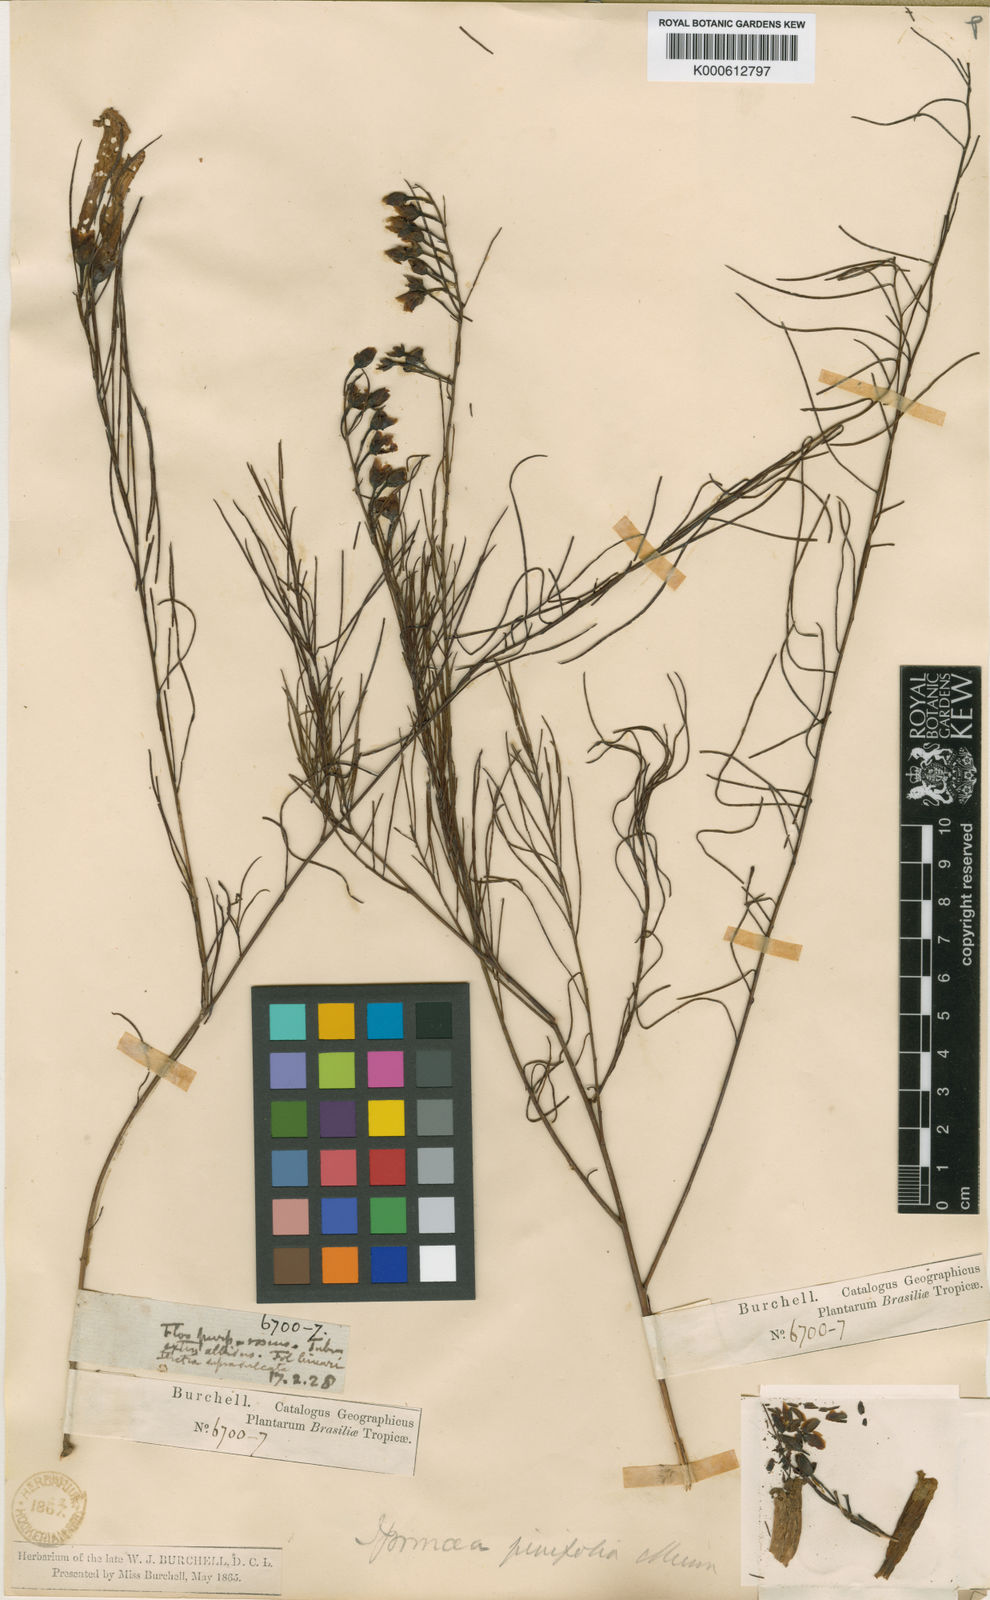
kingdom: Plantae
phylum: Tracheophyta
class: Magnoliopsida
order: Solanales
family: Convolvulaceae
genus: Ipomoea
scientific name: Ipomoea pinifolia
